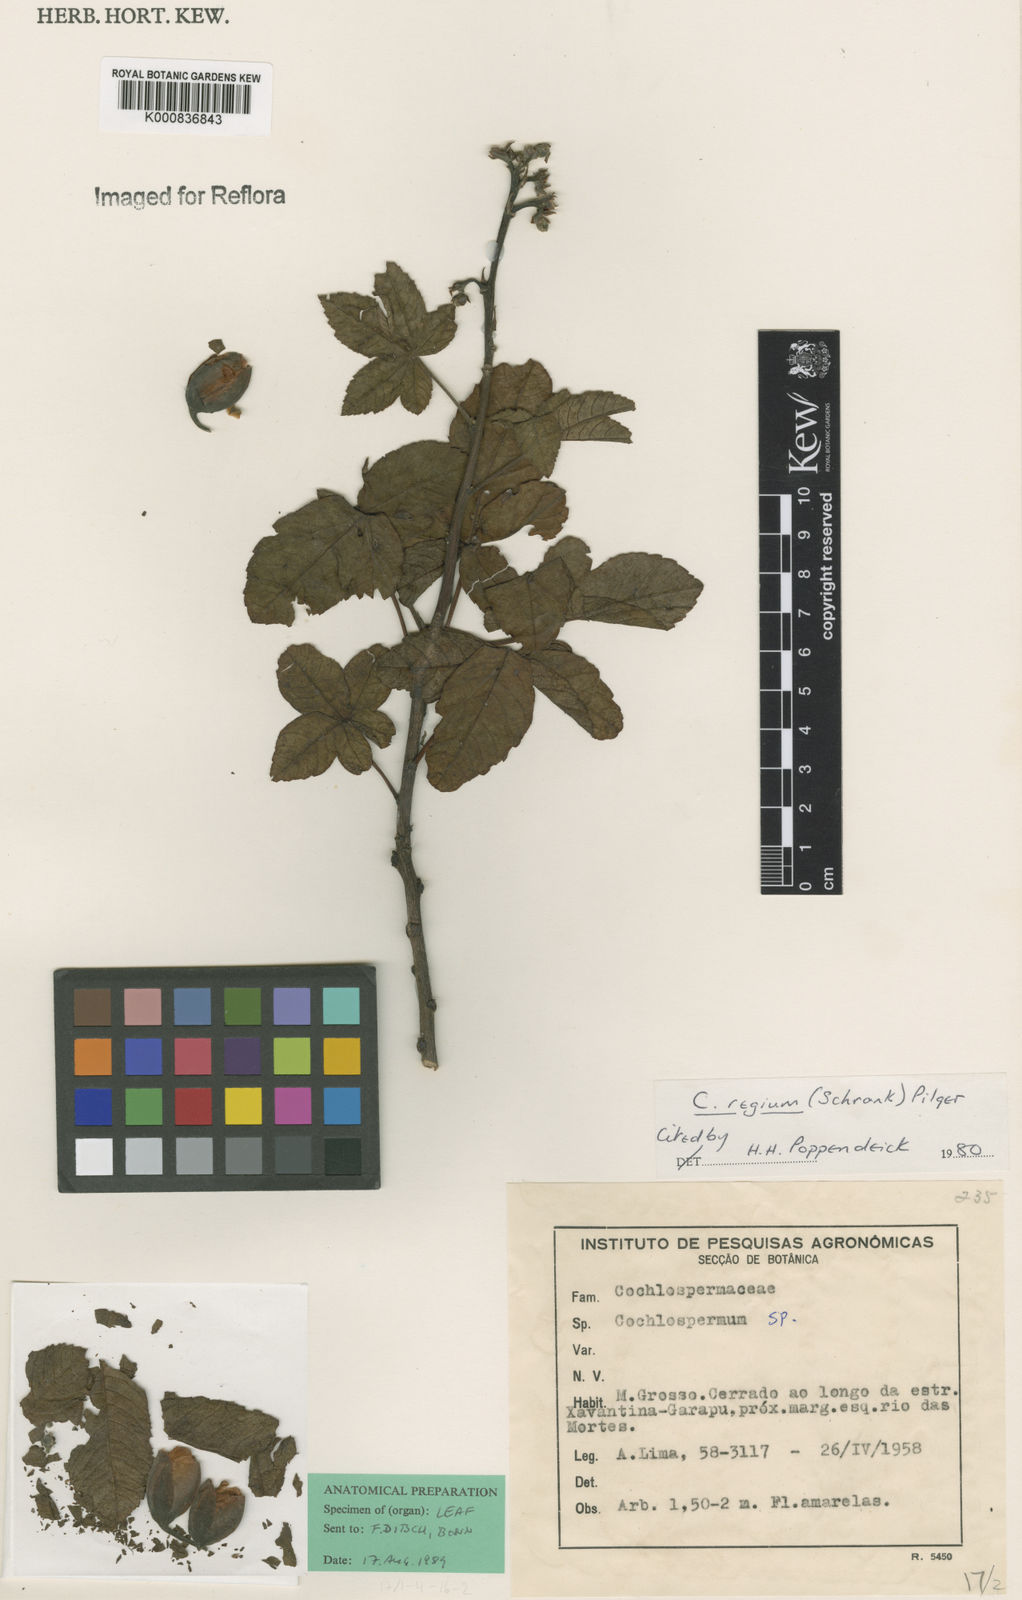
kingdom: Plantae
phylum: Tracheophyta
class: Magnoliopsida
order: Malvales
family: Cochlospermaceae
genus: Cochlospermum
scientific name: Cochlospermum regium
